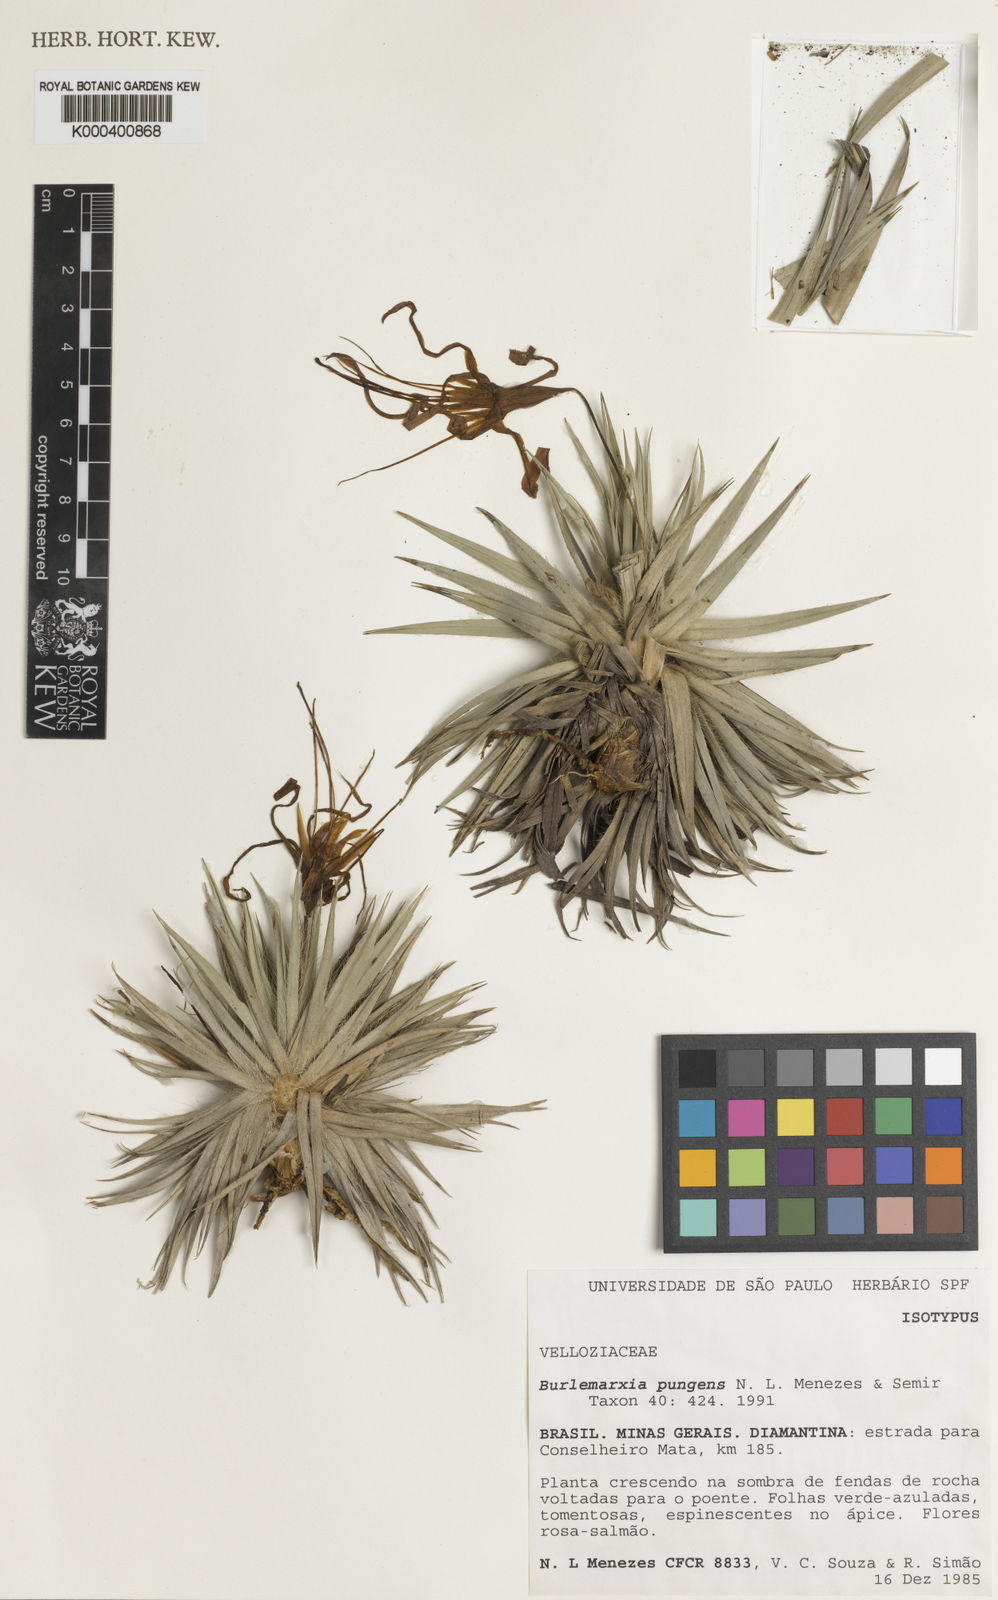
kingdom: Plantae
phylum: Tracheophyta
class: Liliopsida
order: Pandanales
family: Velloziaceae
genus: Barbacenia
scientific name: Barbacenia pungens
